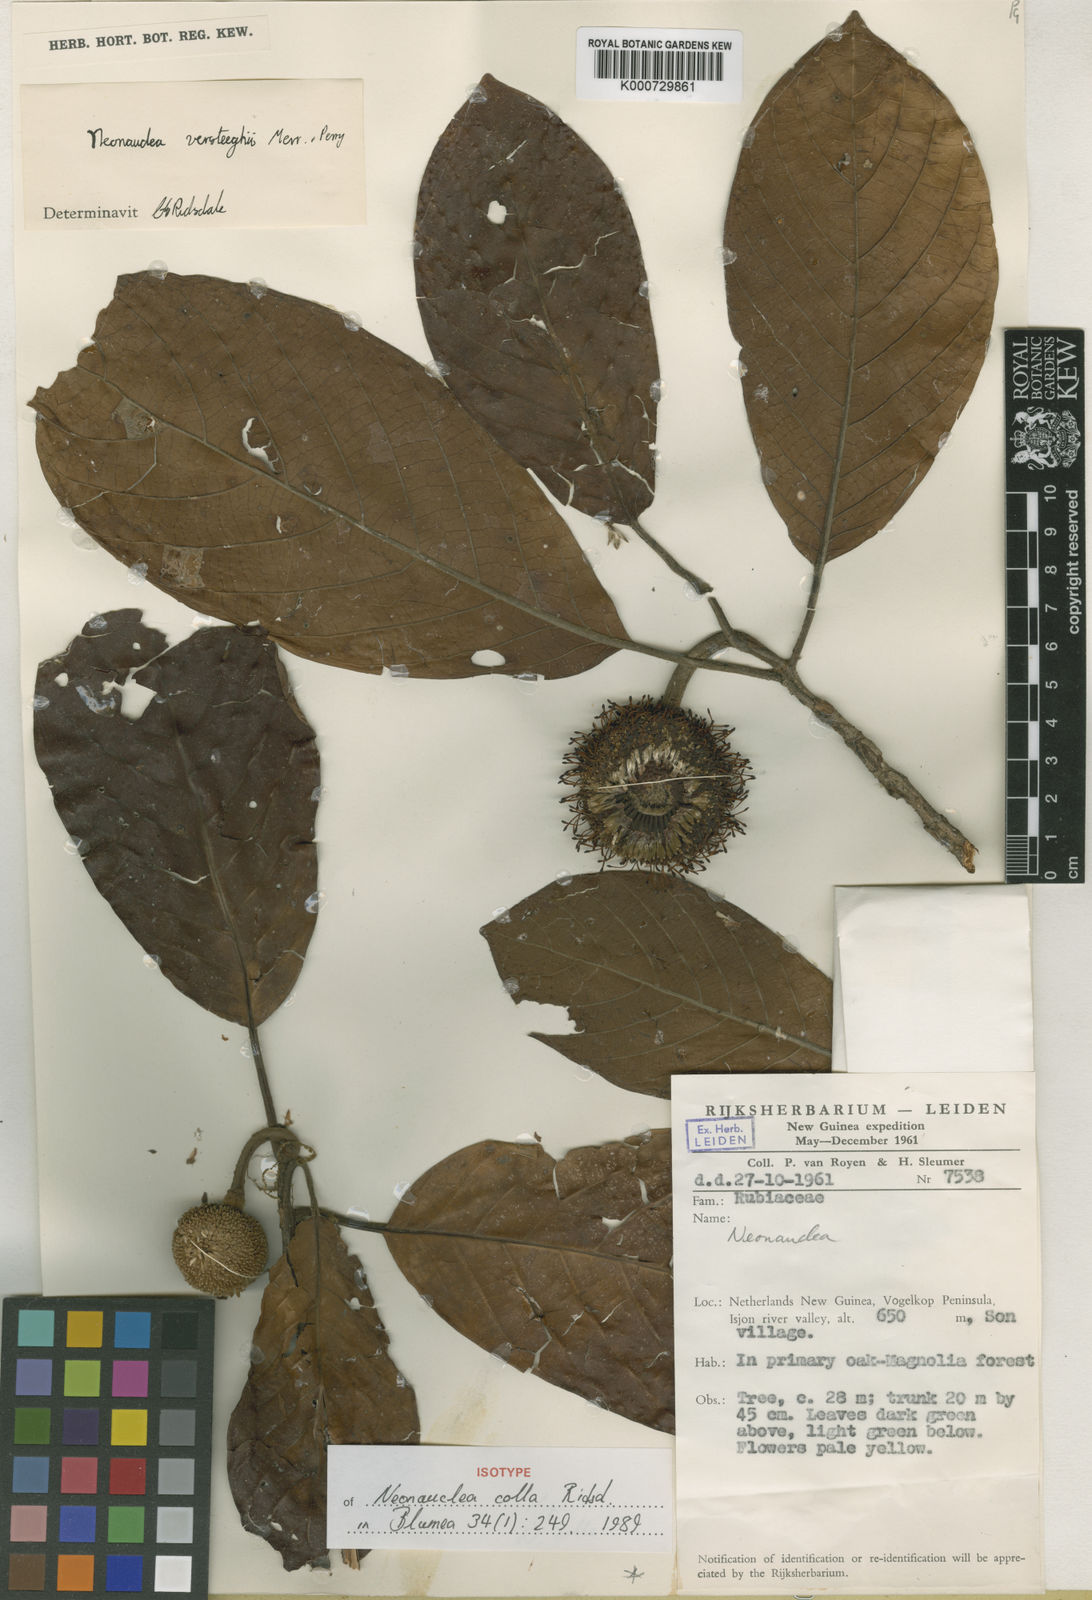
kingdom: Plantae
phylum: Tracheophyta
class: Magnoliopsida
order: Gentianales
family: Rubiaceae
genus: Neonauclea
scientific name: Neonauclea colla
